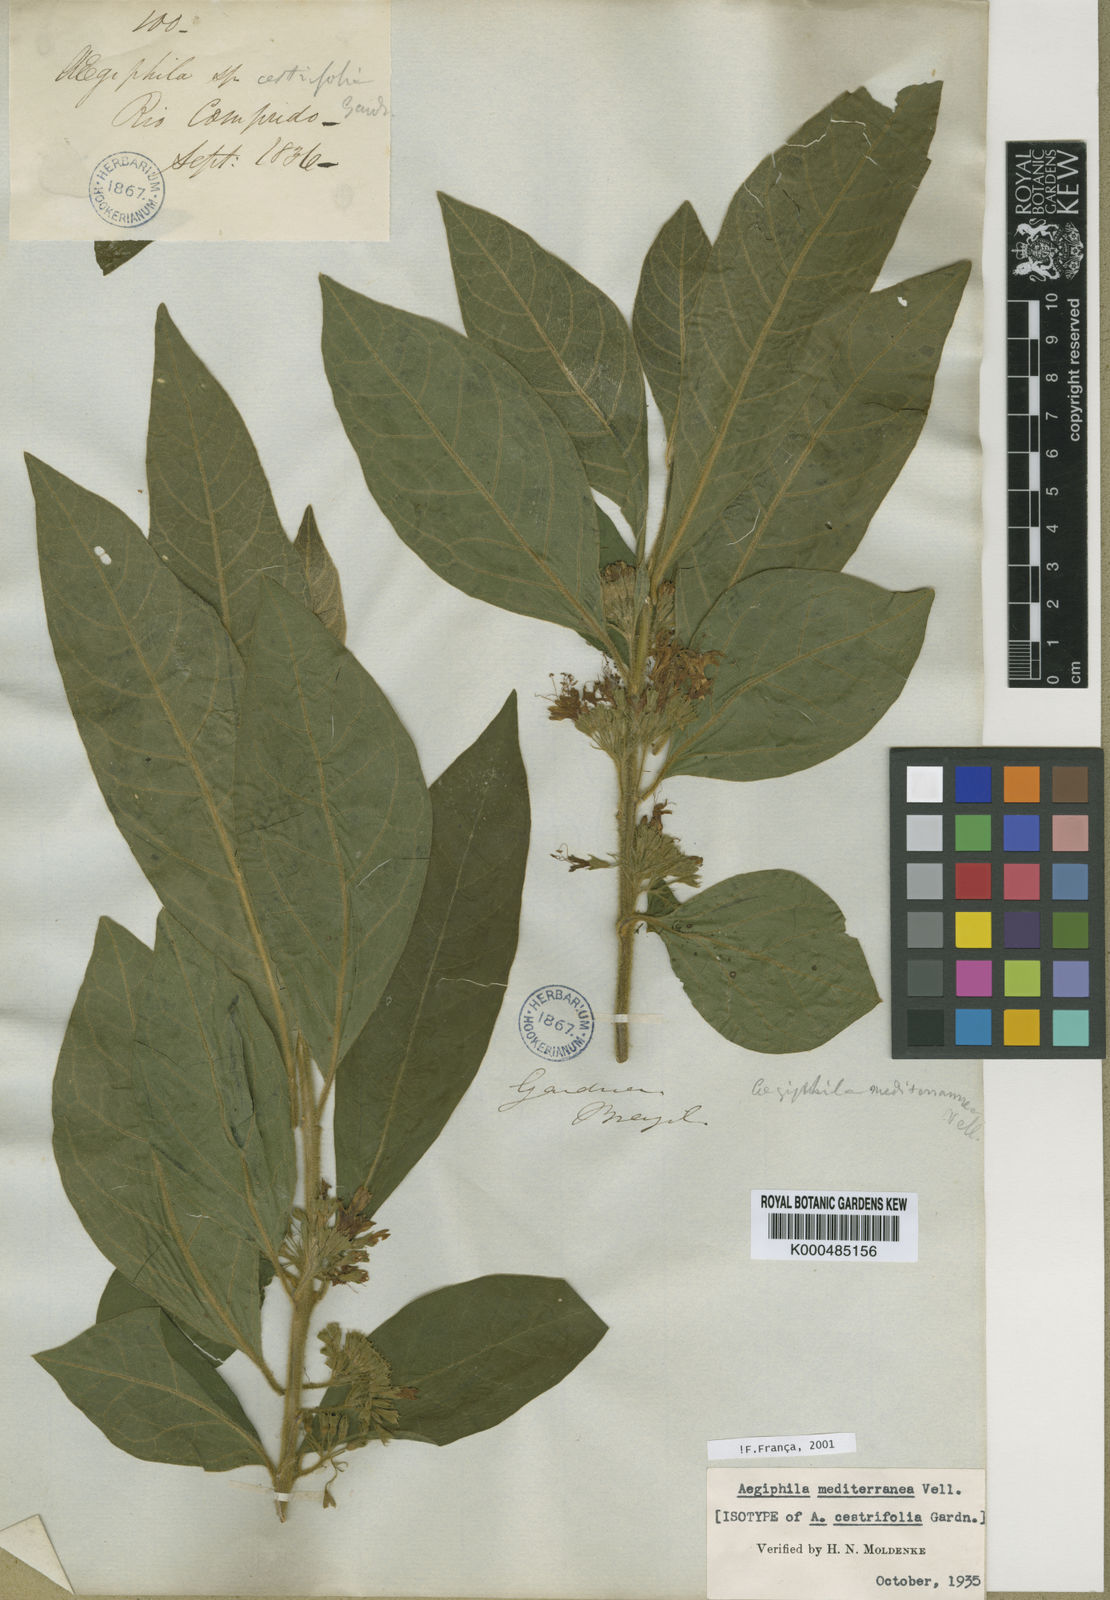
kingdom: Plantae
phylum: Tracheophyta
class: Magnoliopsida
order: Lamiales
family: Lamiaceae
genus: Aegiphila
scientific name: Aegiphila mediterranea
